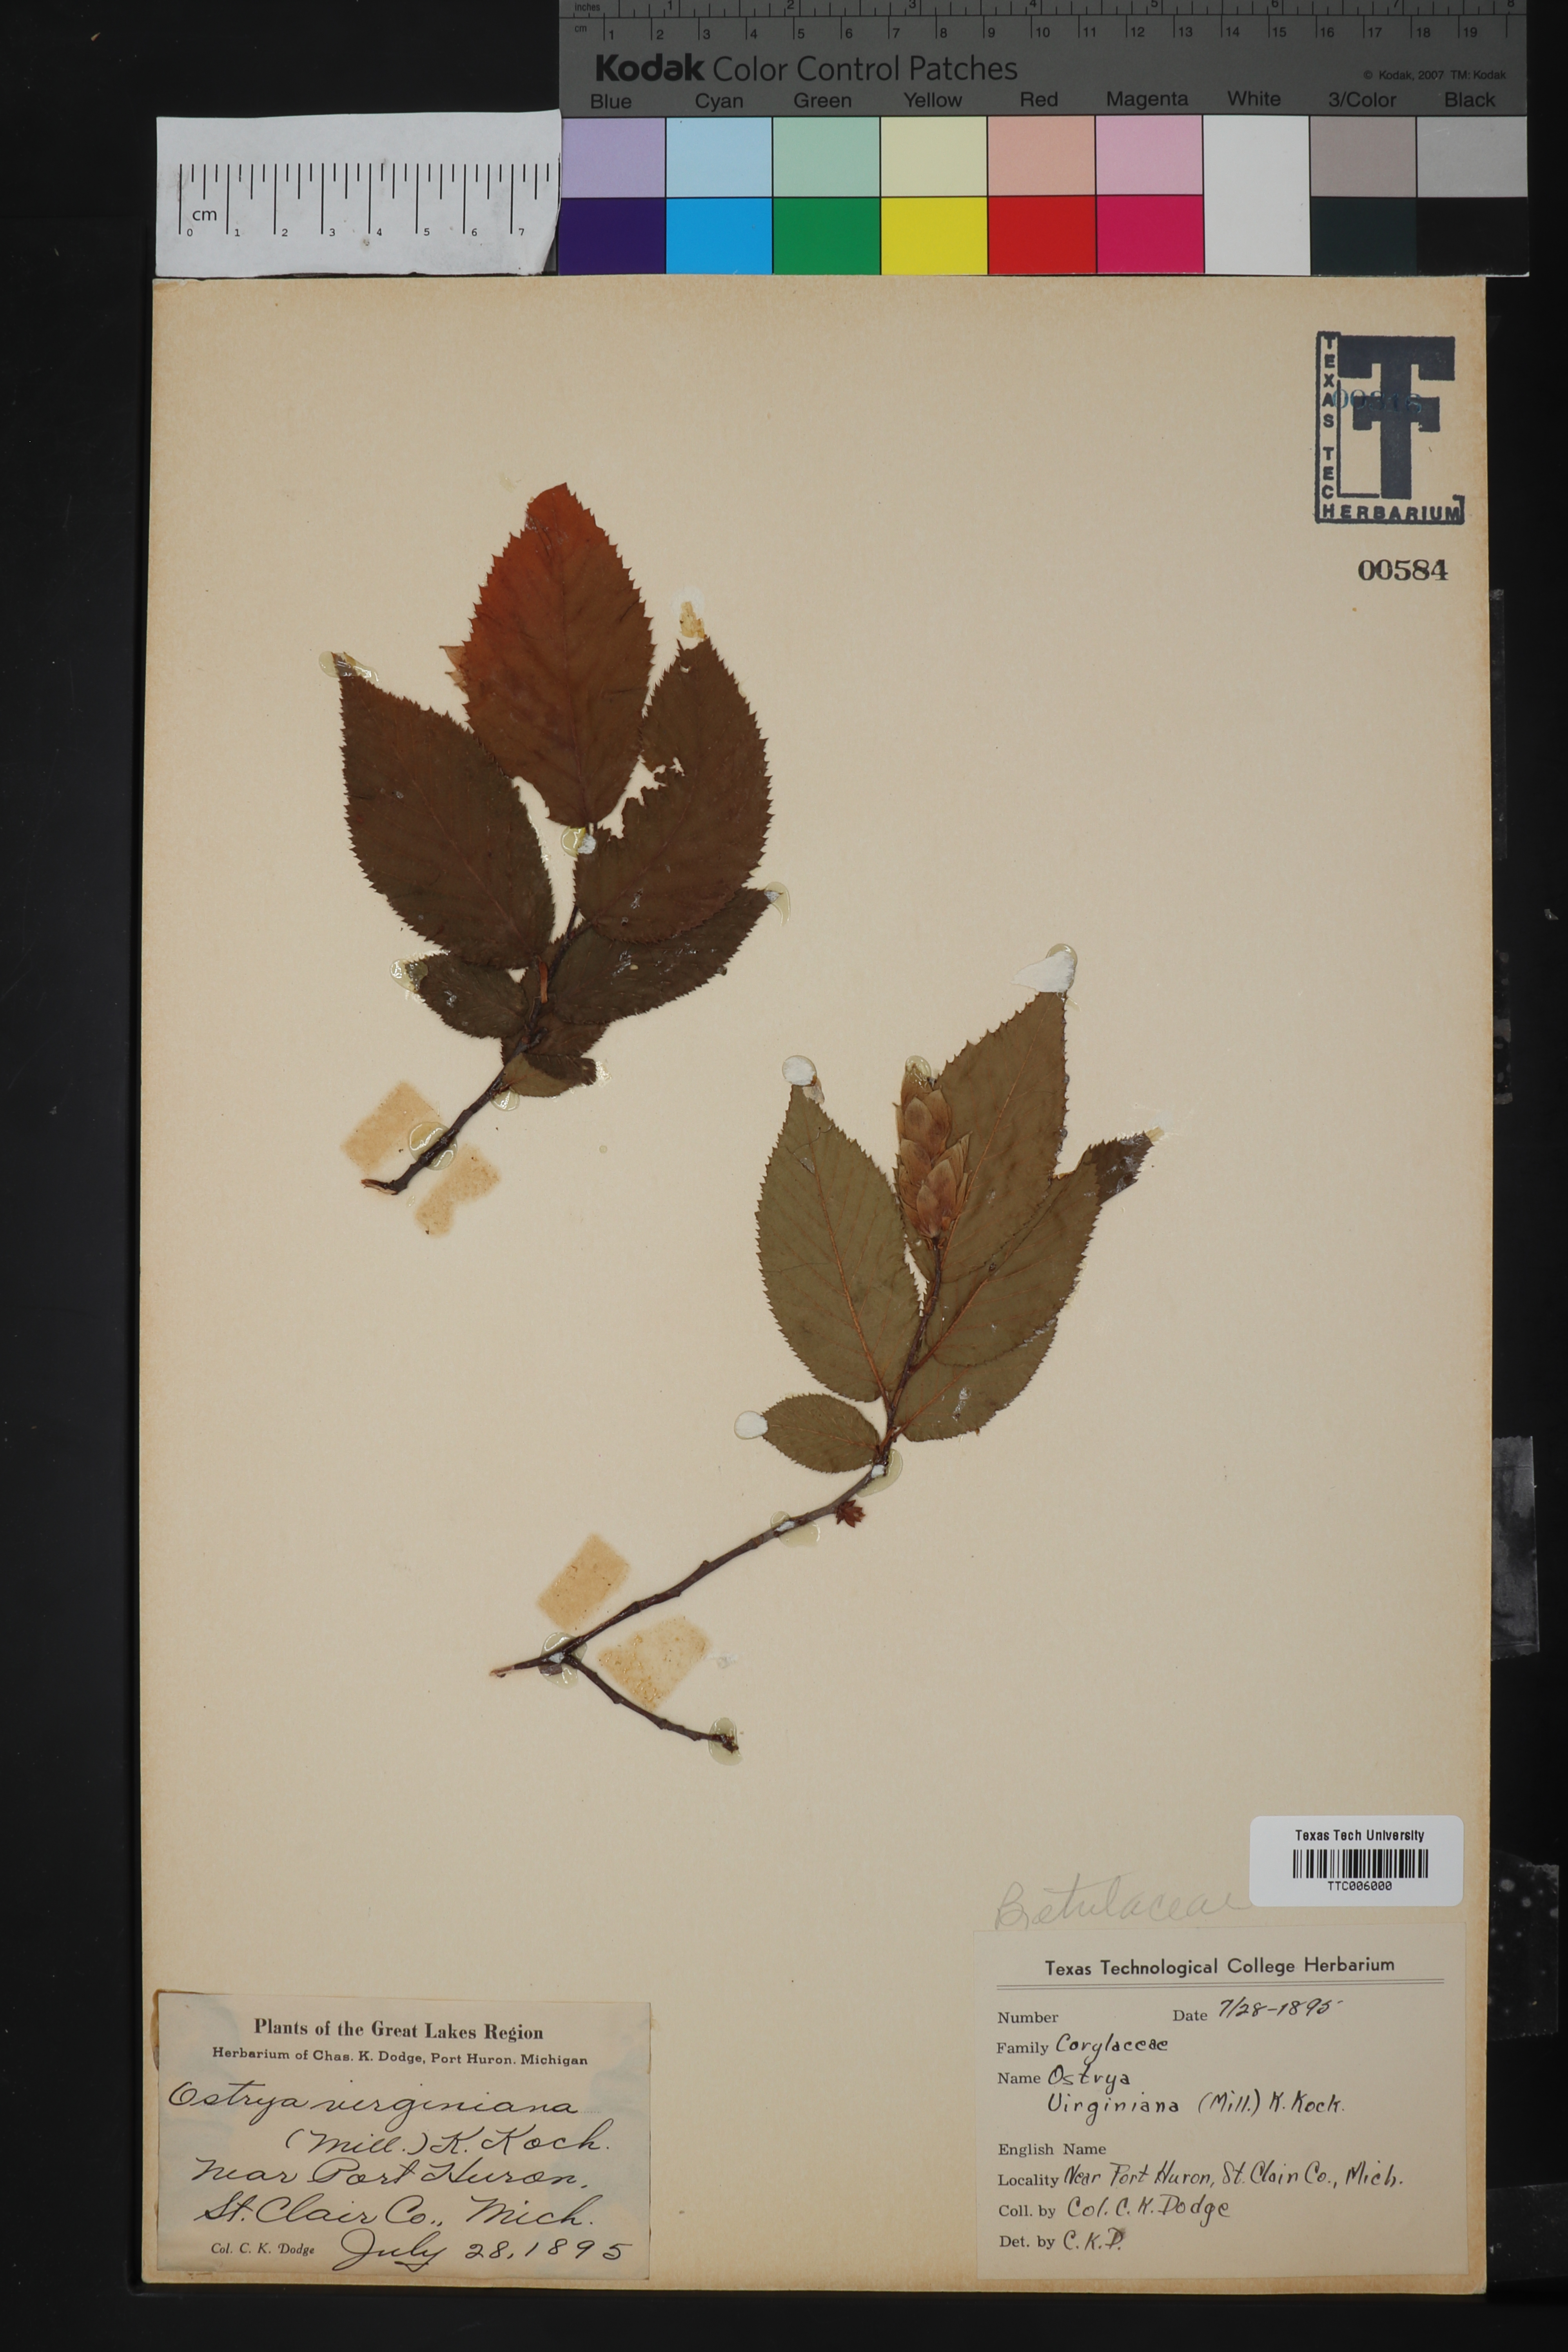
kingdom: Plantae
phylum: Tracheophyta
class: Magnoliopsida
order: Fagales
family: Betulaceae
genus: Ostrya
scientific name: Ostrya virginiana
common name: Ironwood
